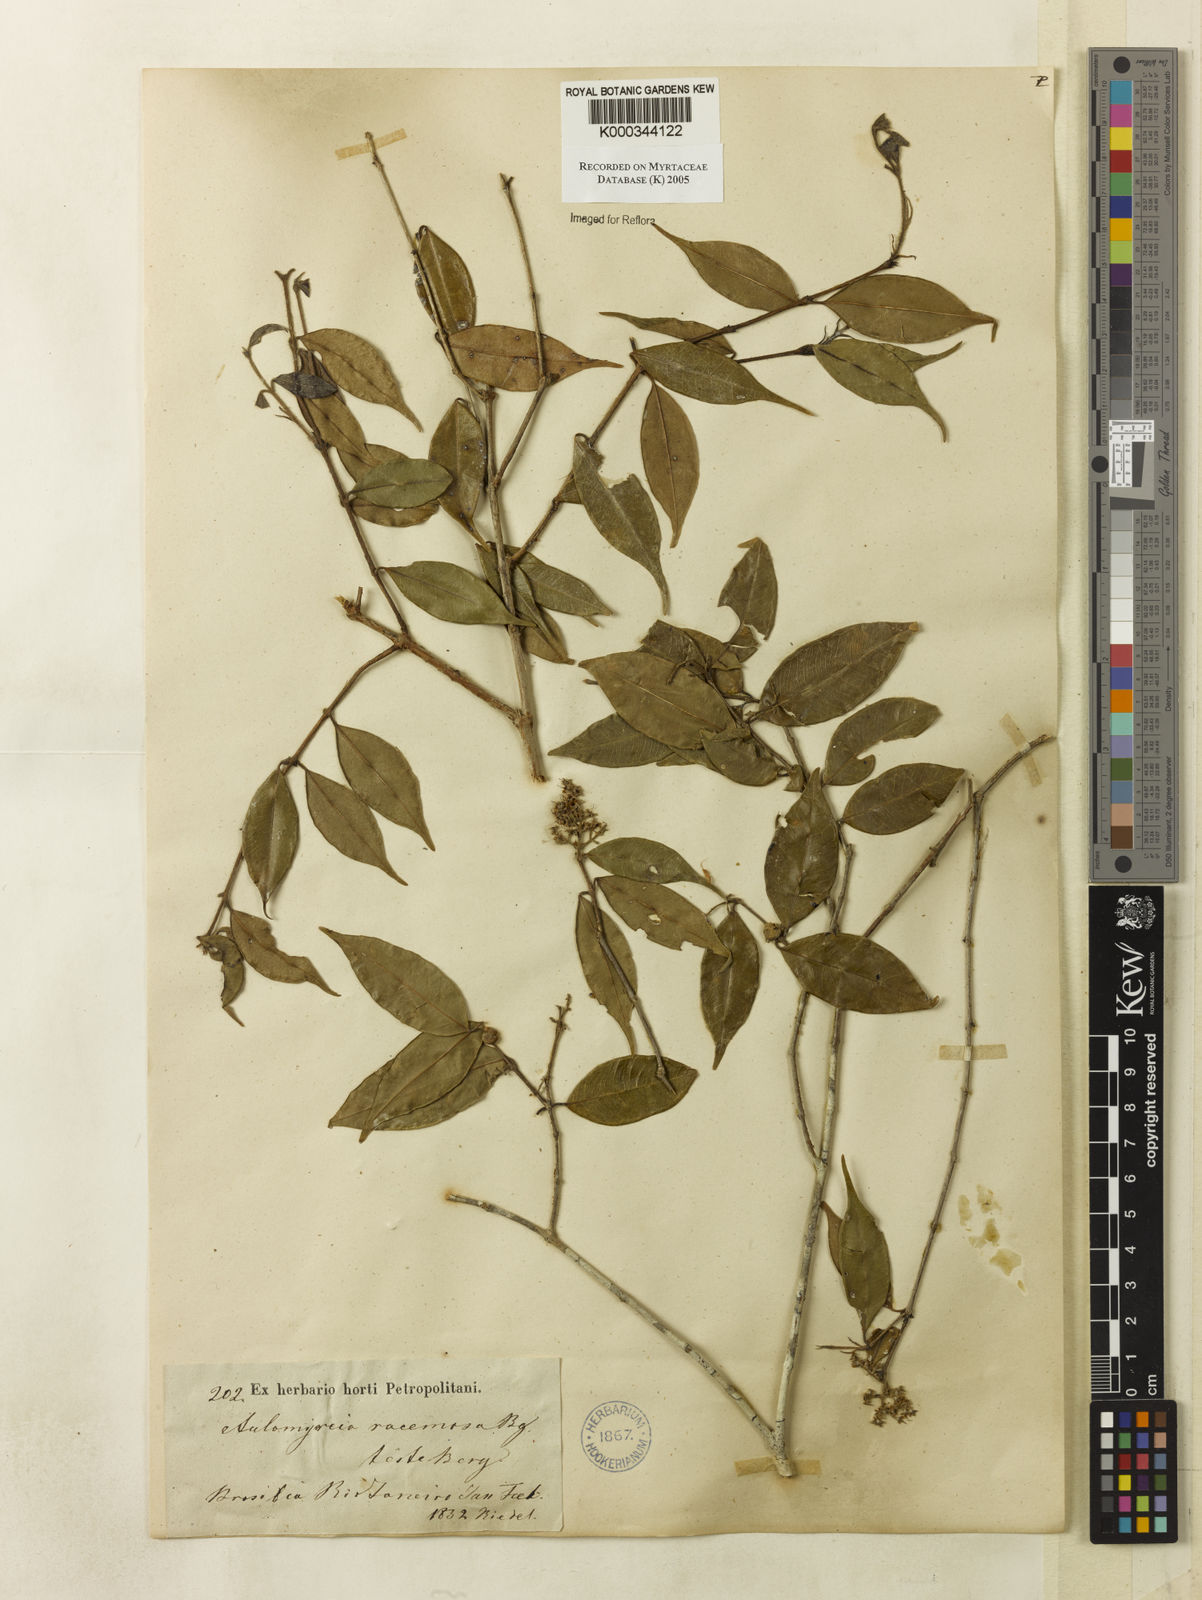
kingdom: Plantae
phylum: Tracheophyta
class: Magnoliopsida
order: Myrtales
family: Myrtaceae
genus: Myrcia
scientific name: Myrcia racemosa
